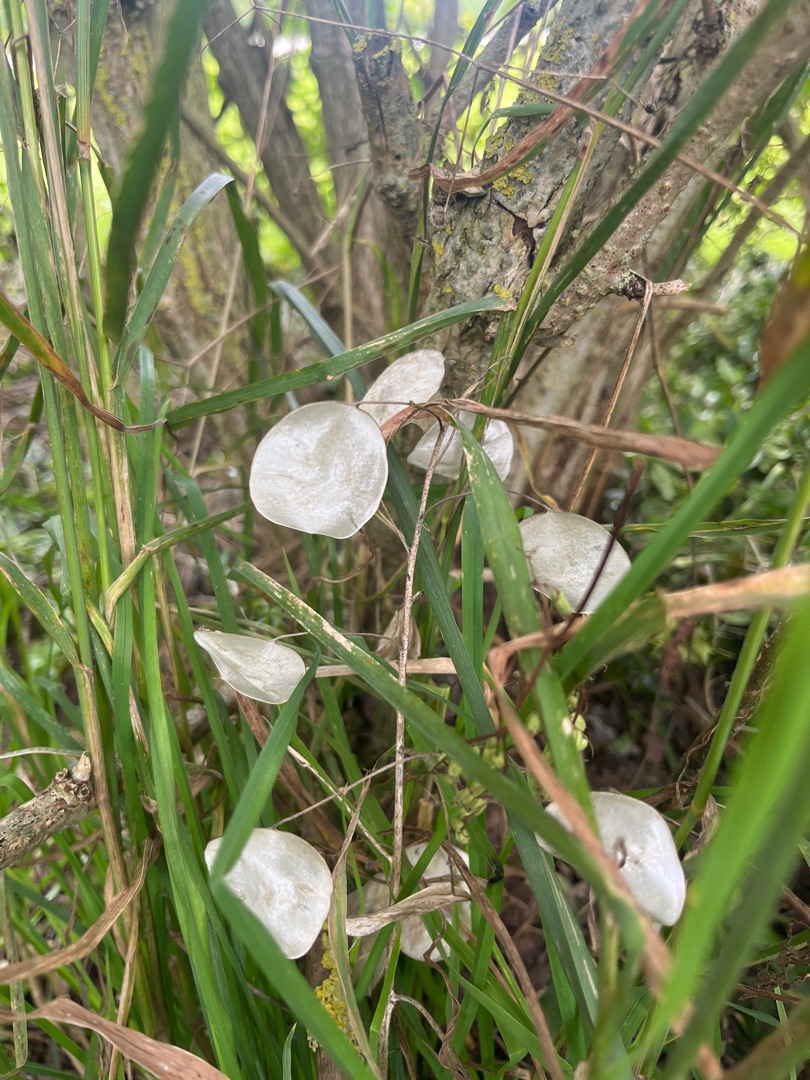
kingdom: Plantae
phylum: Tracheophyta
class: Magnoliopsida
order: Brassicales
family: Brassicaceae
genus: Lunaria
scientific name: Lunaria annua
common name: Judaspenge
